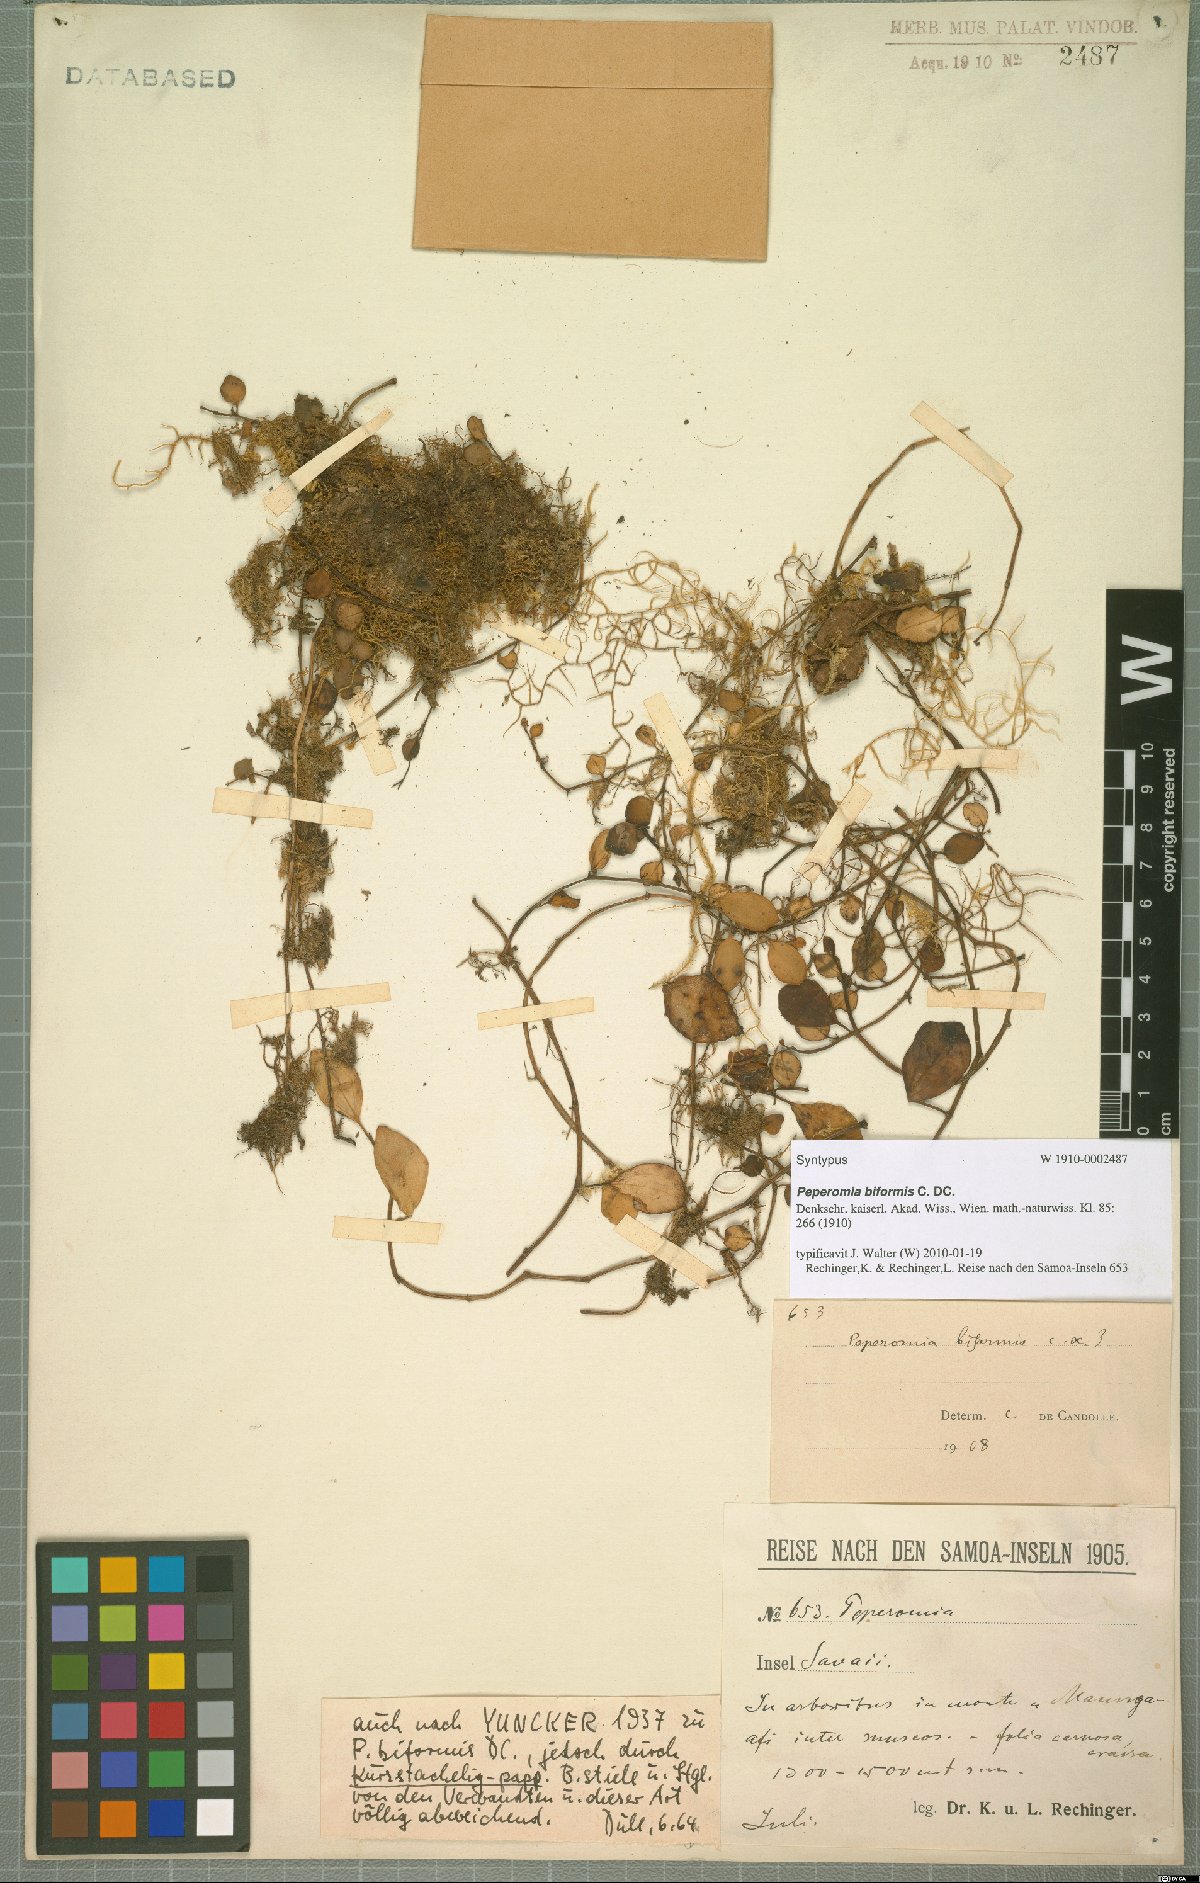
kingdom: Plantae
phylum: Tracheophyta
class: Magnoliopsida
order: Piperales
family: Piperaceae
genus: Peperomia
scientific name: Peperomia biformis
